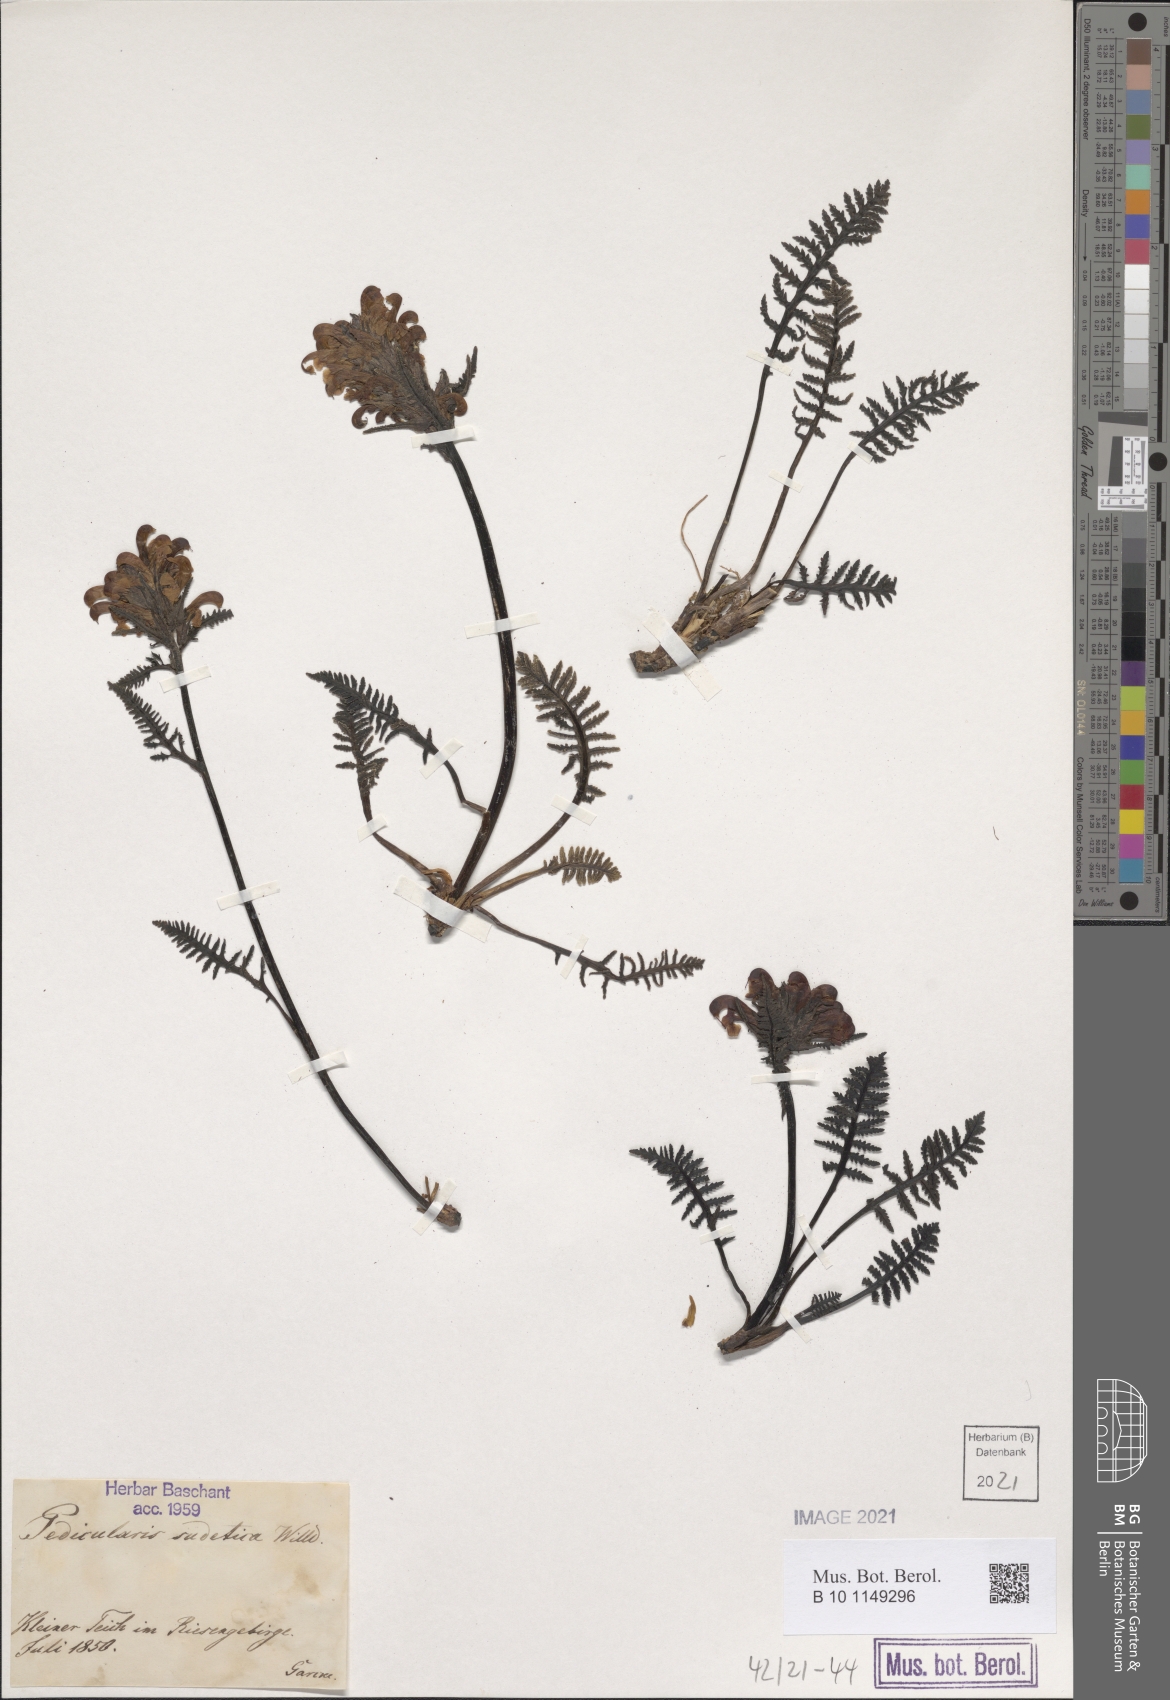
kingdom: Plantae
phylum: Tracheophyta
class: Magnoliopsida
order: Lamiales
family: Orobanchaceae
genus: Pedicularis
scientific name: Pedicularis sudetica
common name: Sudeten lousewort
